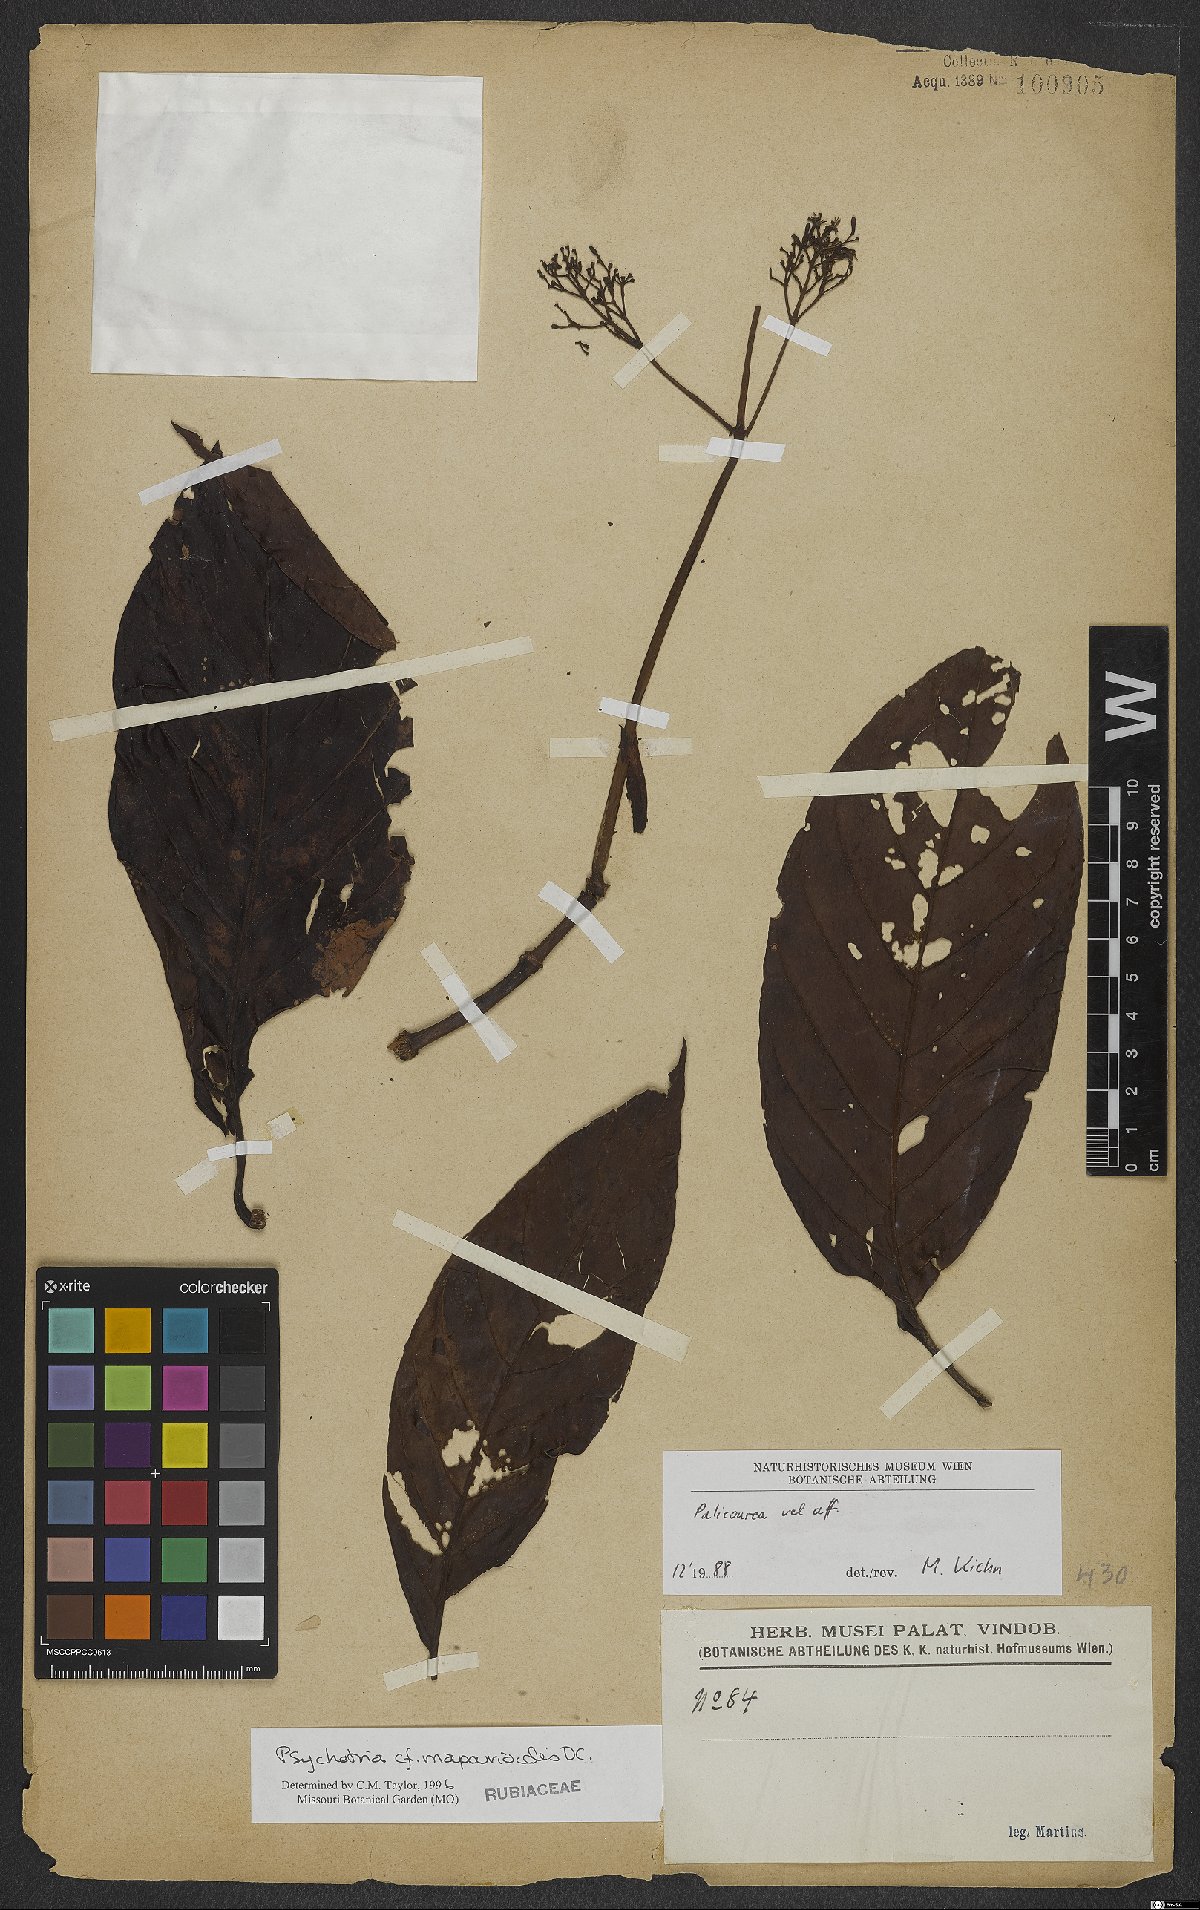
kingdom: Plantae
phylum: Tracheophyta
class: Magnoliopsida
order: Gentianales
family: Rubiaceae
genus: Psychotria
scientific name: Psychotria pedunculosa
